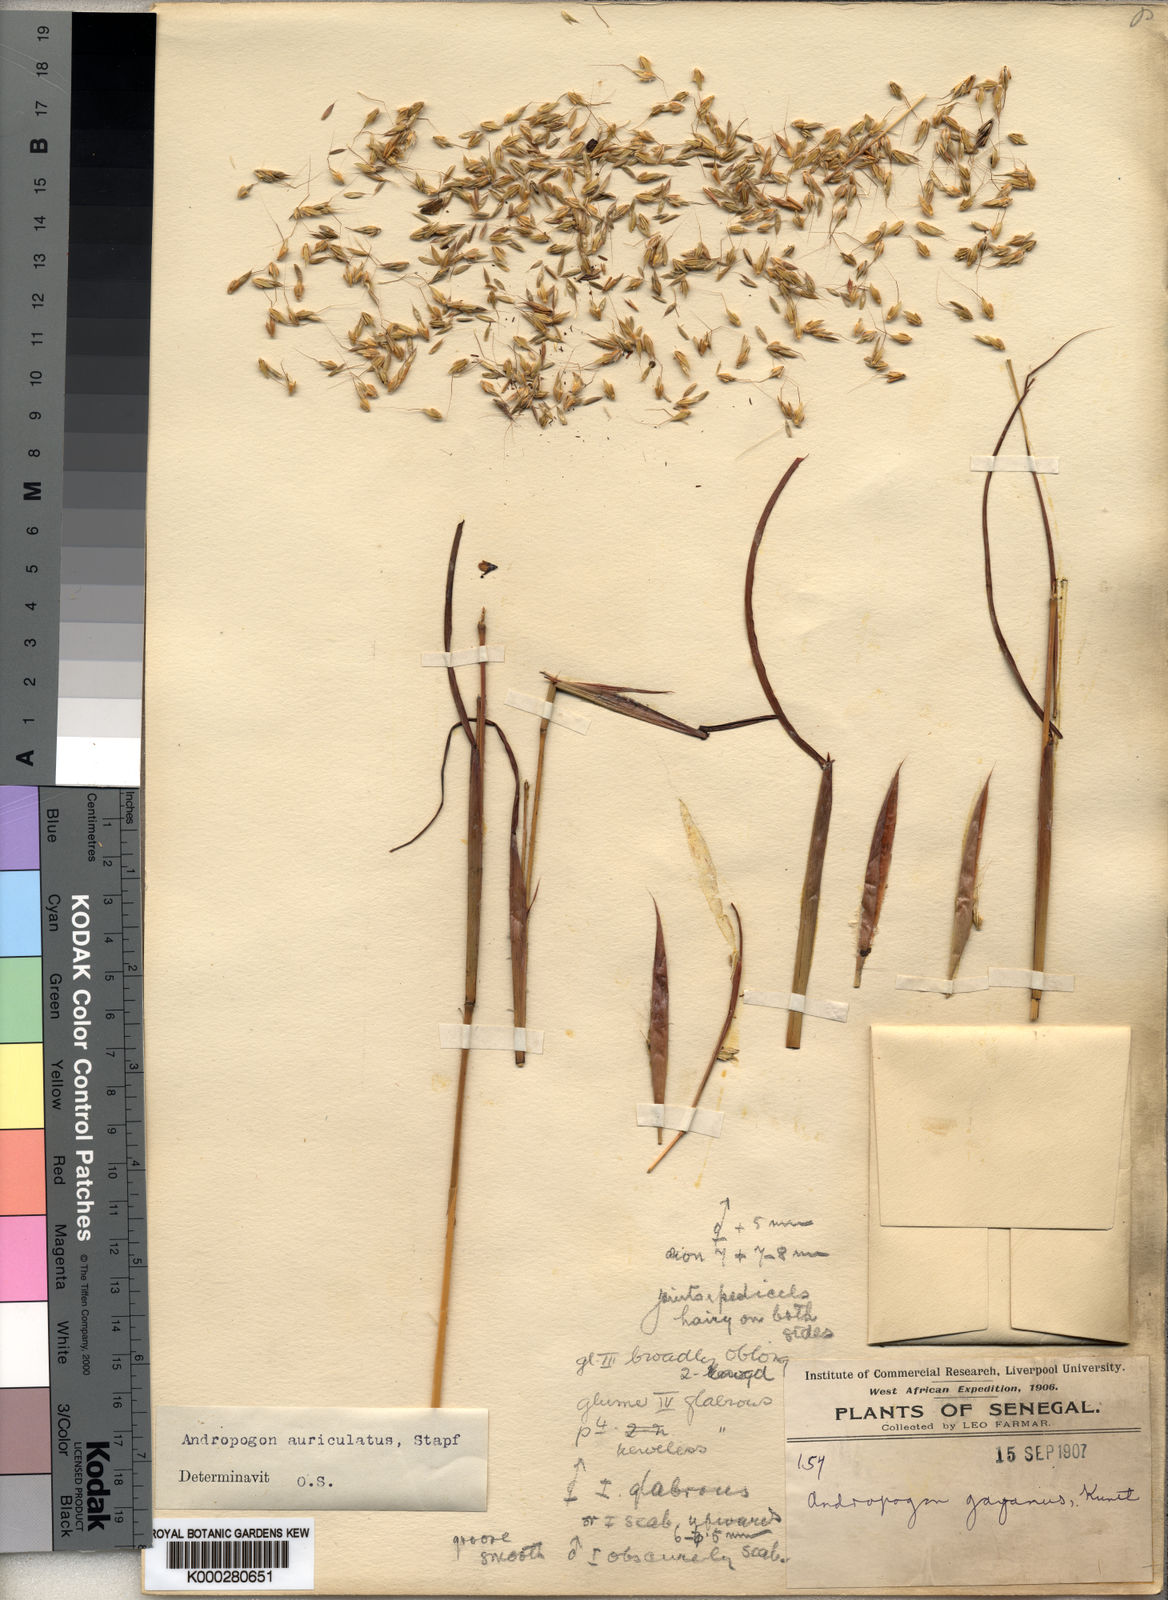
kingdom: Plantae
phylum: Tracheophyta
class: Liliopsida
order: Poales
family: Poaceae
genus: Andropogon
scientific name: Andropogon auriculatus
